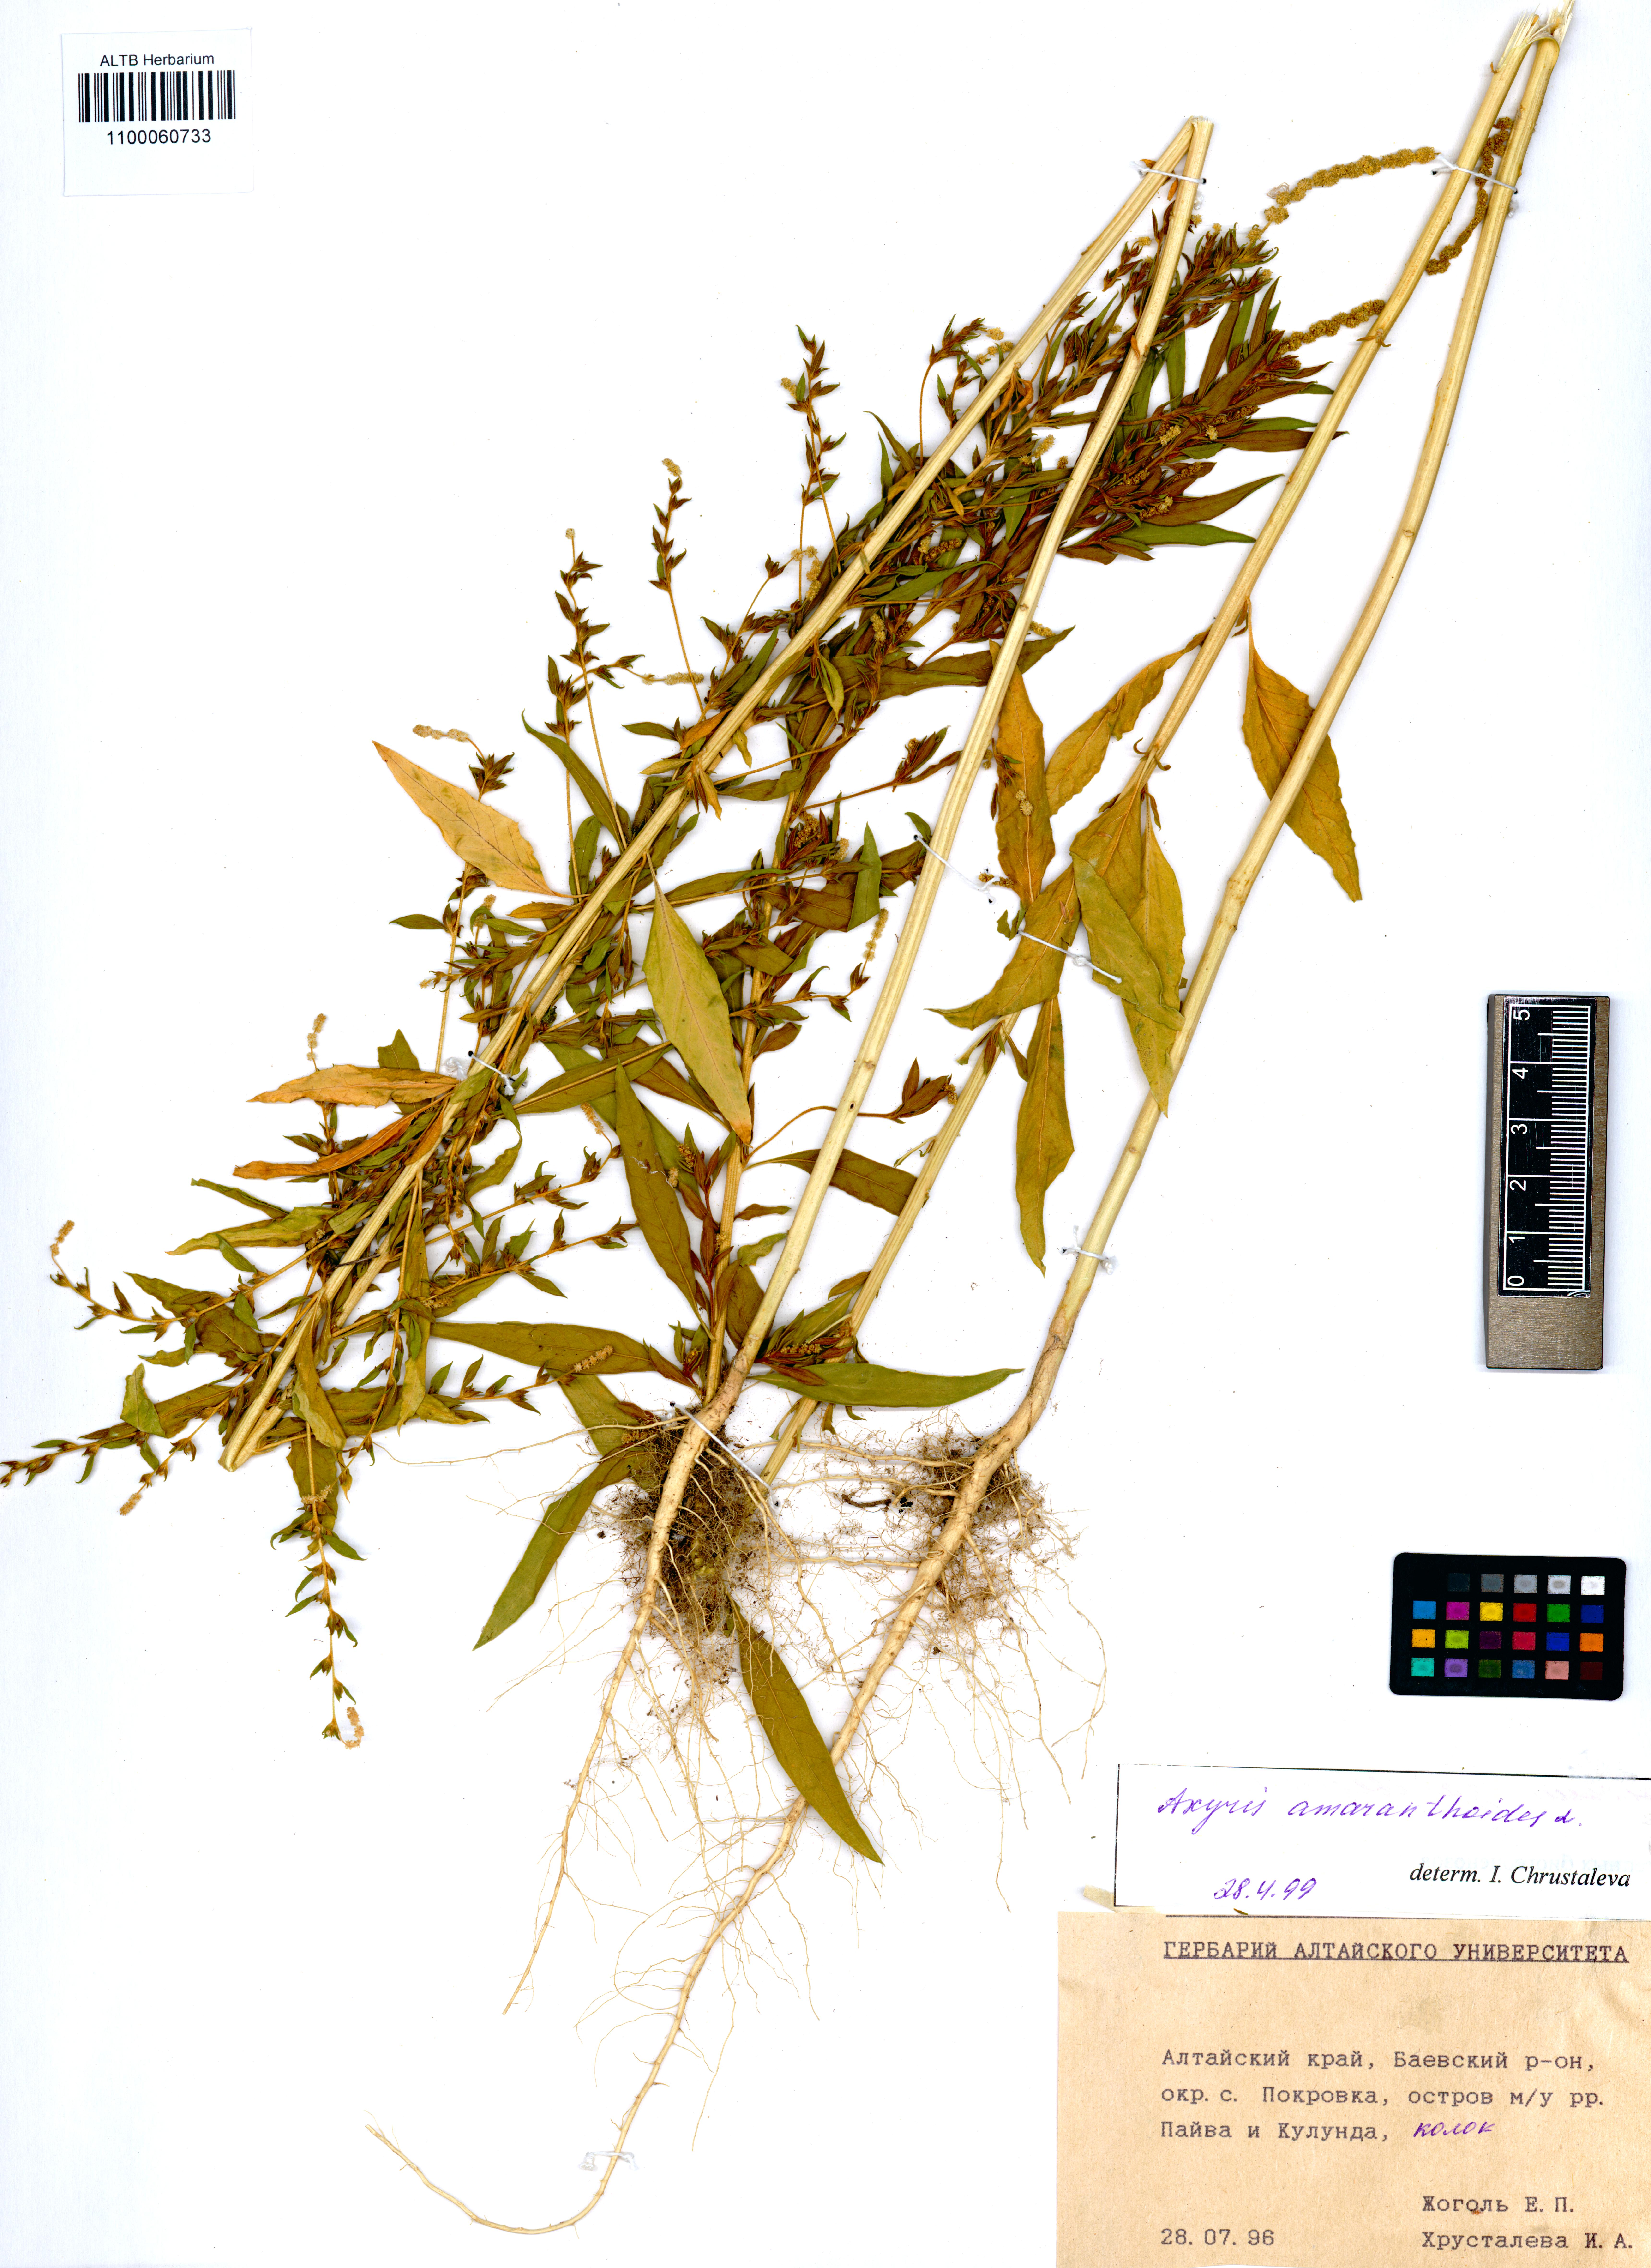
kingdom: Plantae
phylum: Tracheophyta
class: Magnoliopsida
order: Caryophyllales
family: Amaranthaceae
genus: Axyris
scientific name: Axyris amaranthoides
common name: Russian pigweed
